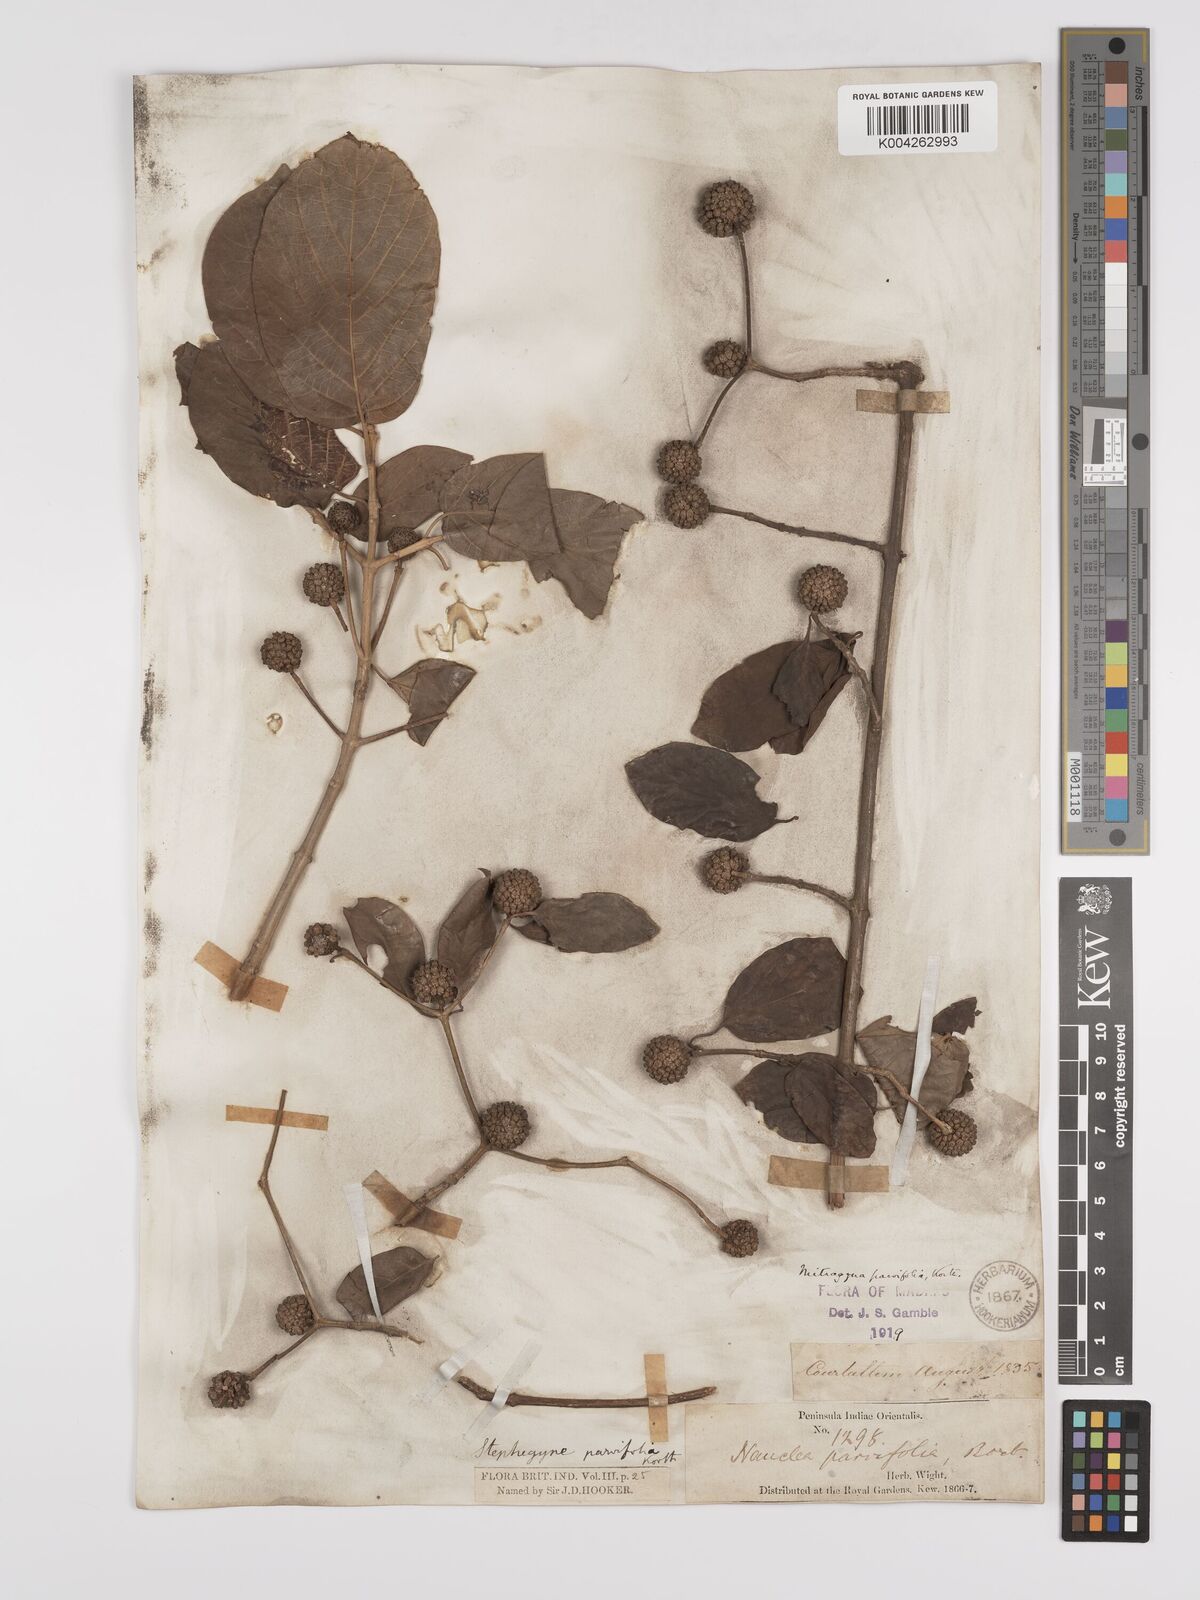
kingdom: Plantae
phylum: Tracheophyta
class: Magnoliopsida
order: Gentianales
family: Rubiaceae
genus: Mitragyna
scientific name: Mitragyna parvifolia
